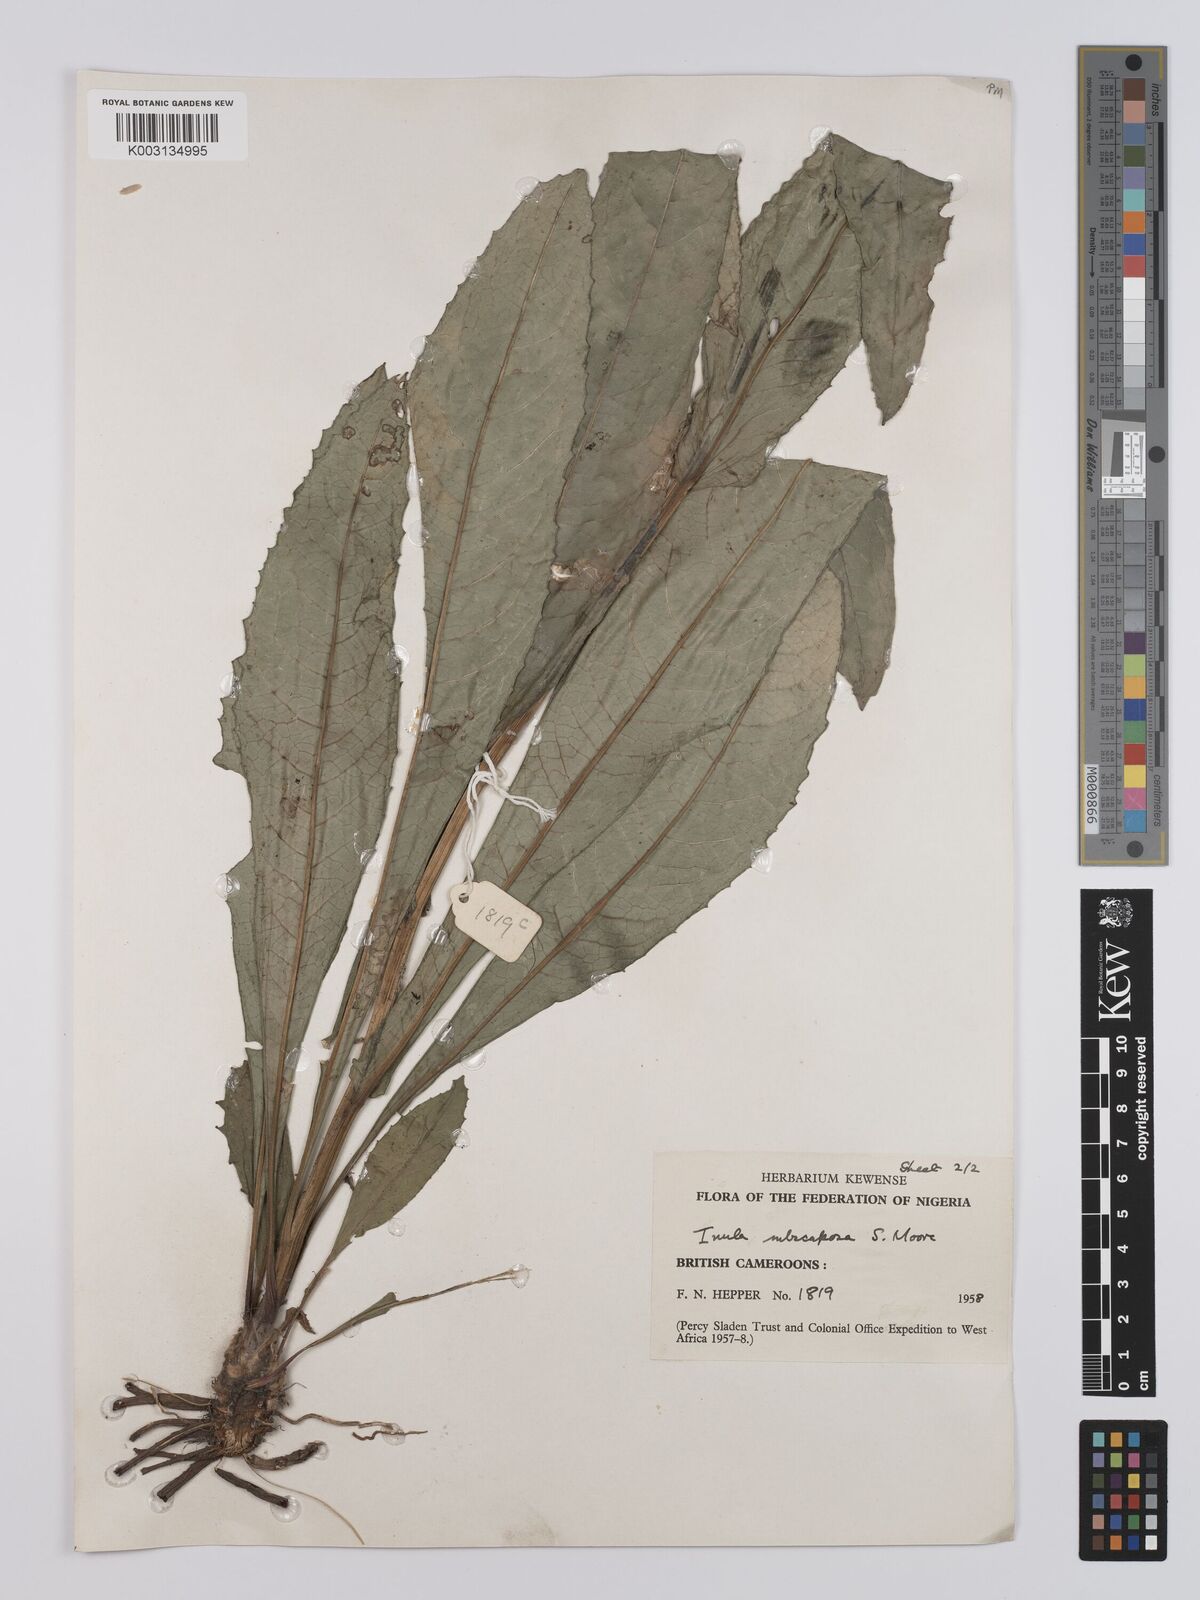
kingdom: Plantae
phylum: Tracheophyta
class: Magnoliopsida
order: Asterales
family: Asteraceae
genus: Monactinocephalus
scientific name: Monactinocephalus paniculatus
